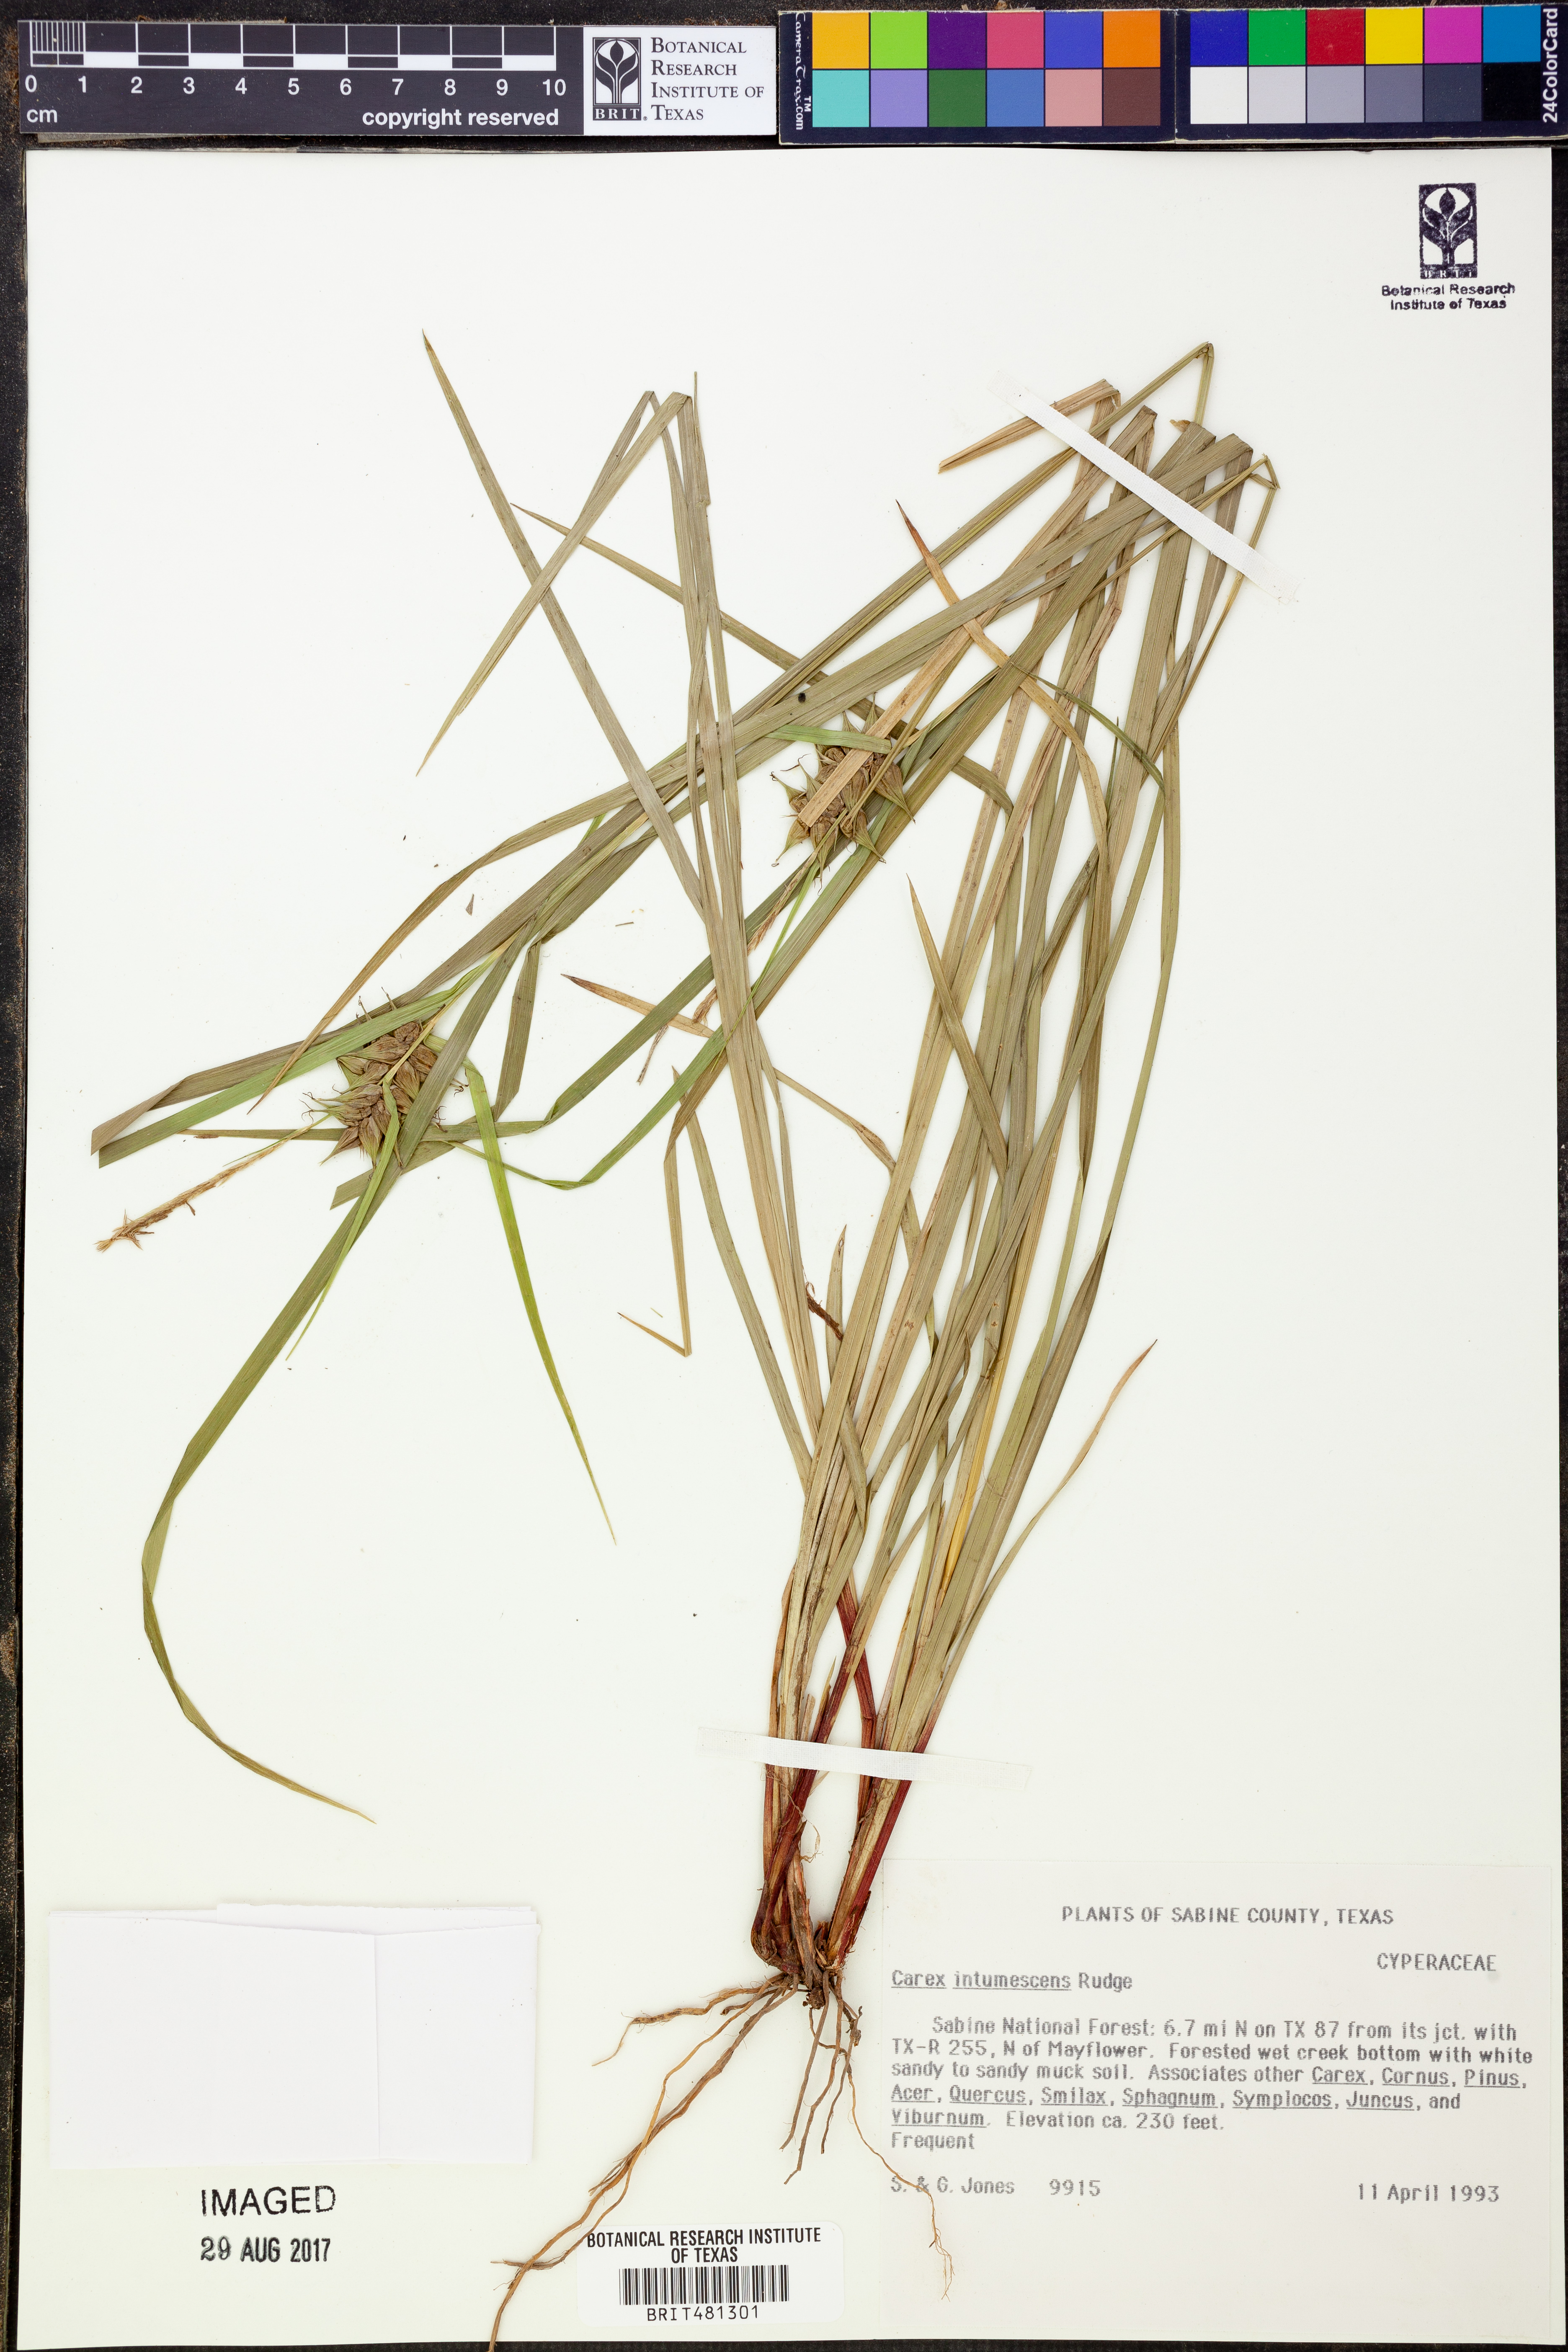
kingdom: Plantae
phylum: Tracheophyta
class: Liliopsida
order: Poales
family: Cyperaceae
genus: Carex
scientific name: Carex intumescens
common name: Greater bladder sedge
